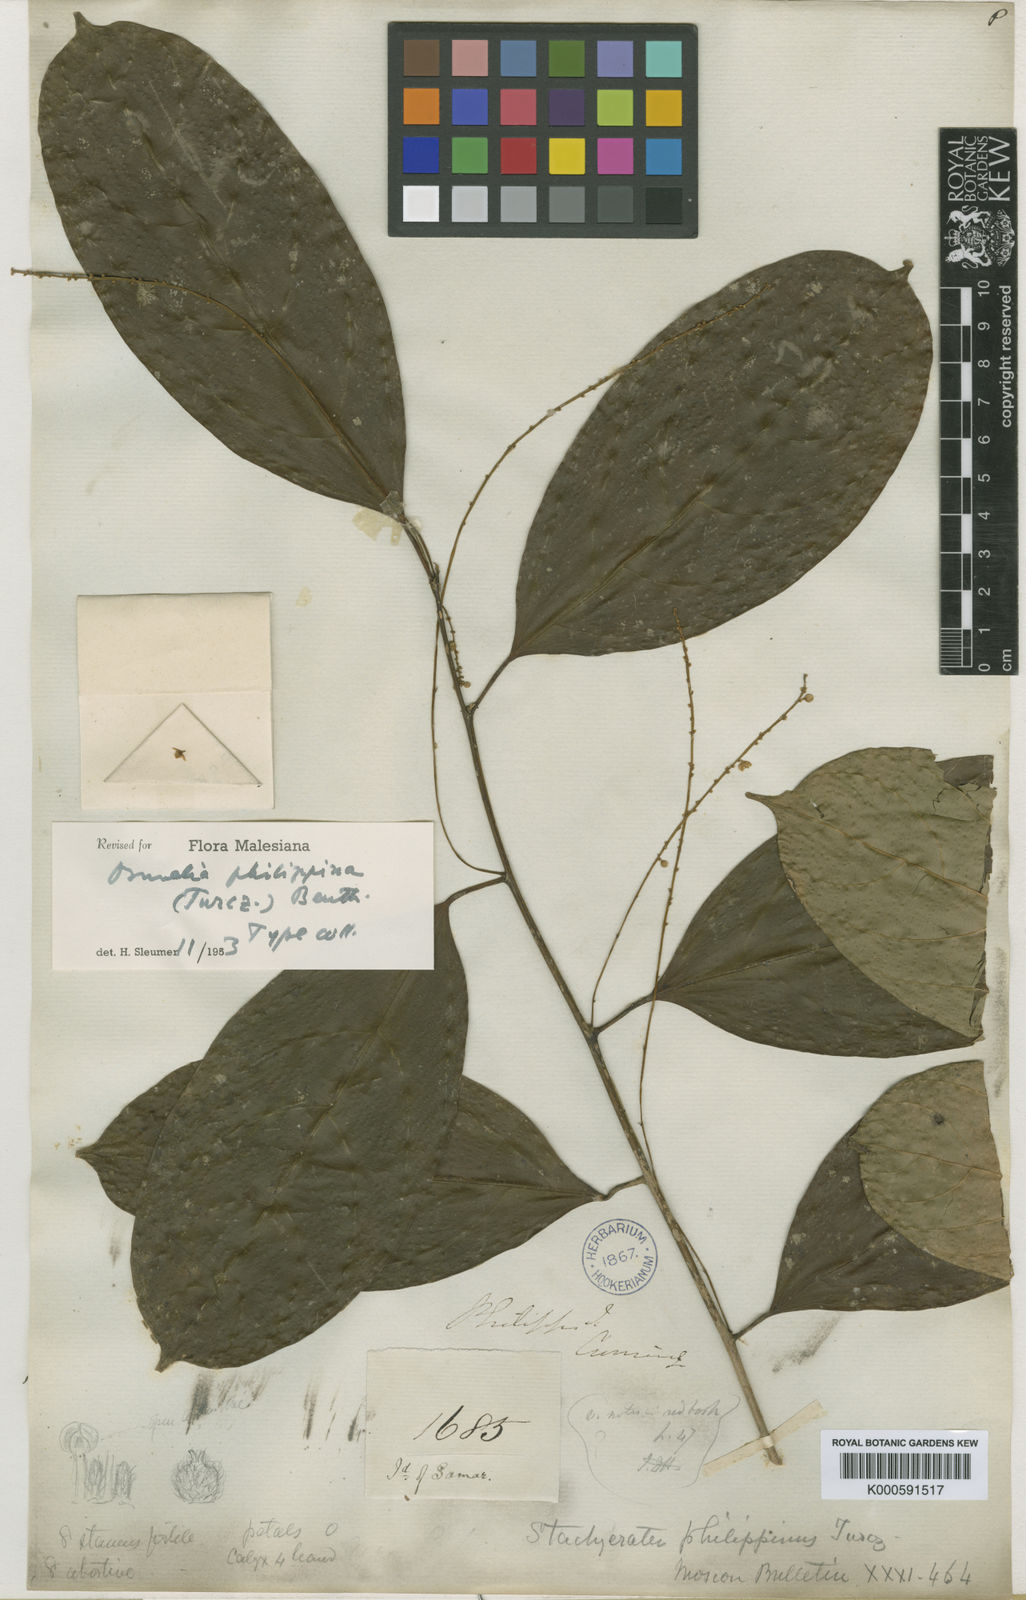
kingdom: Plantae
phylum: Tracheophyta
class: Magnoliopsida
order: Malpighiales
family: Salicaceae
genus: Osmelia
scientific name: Osmelia
